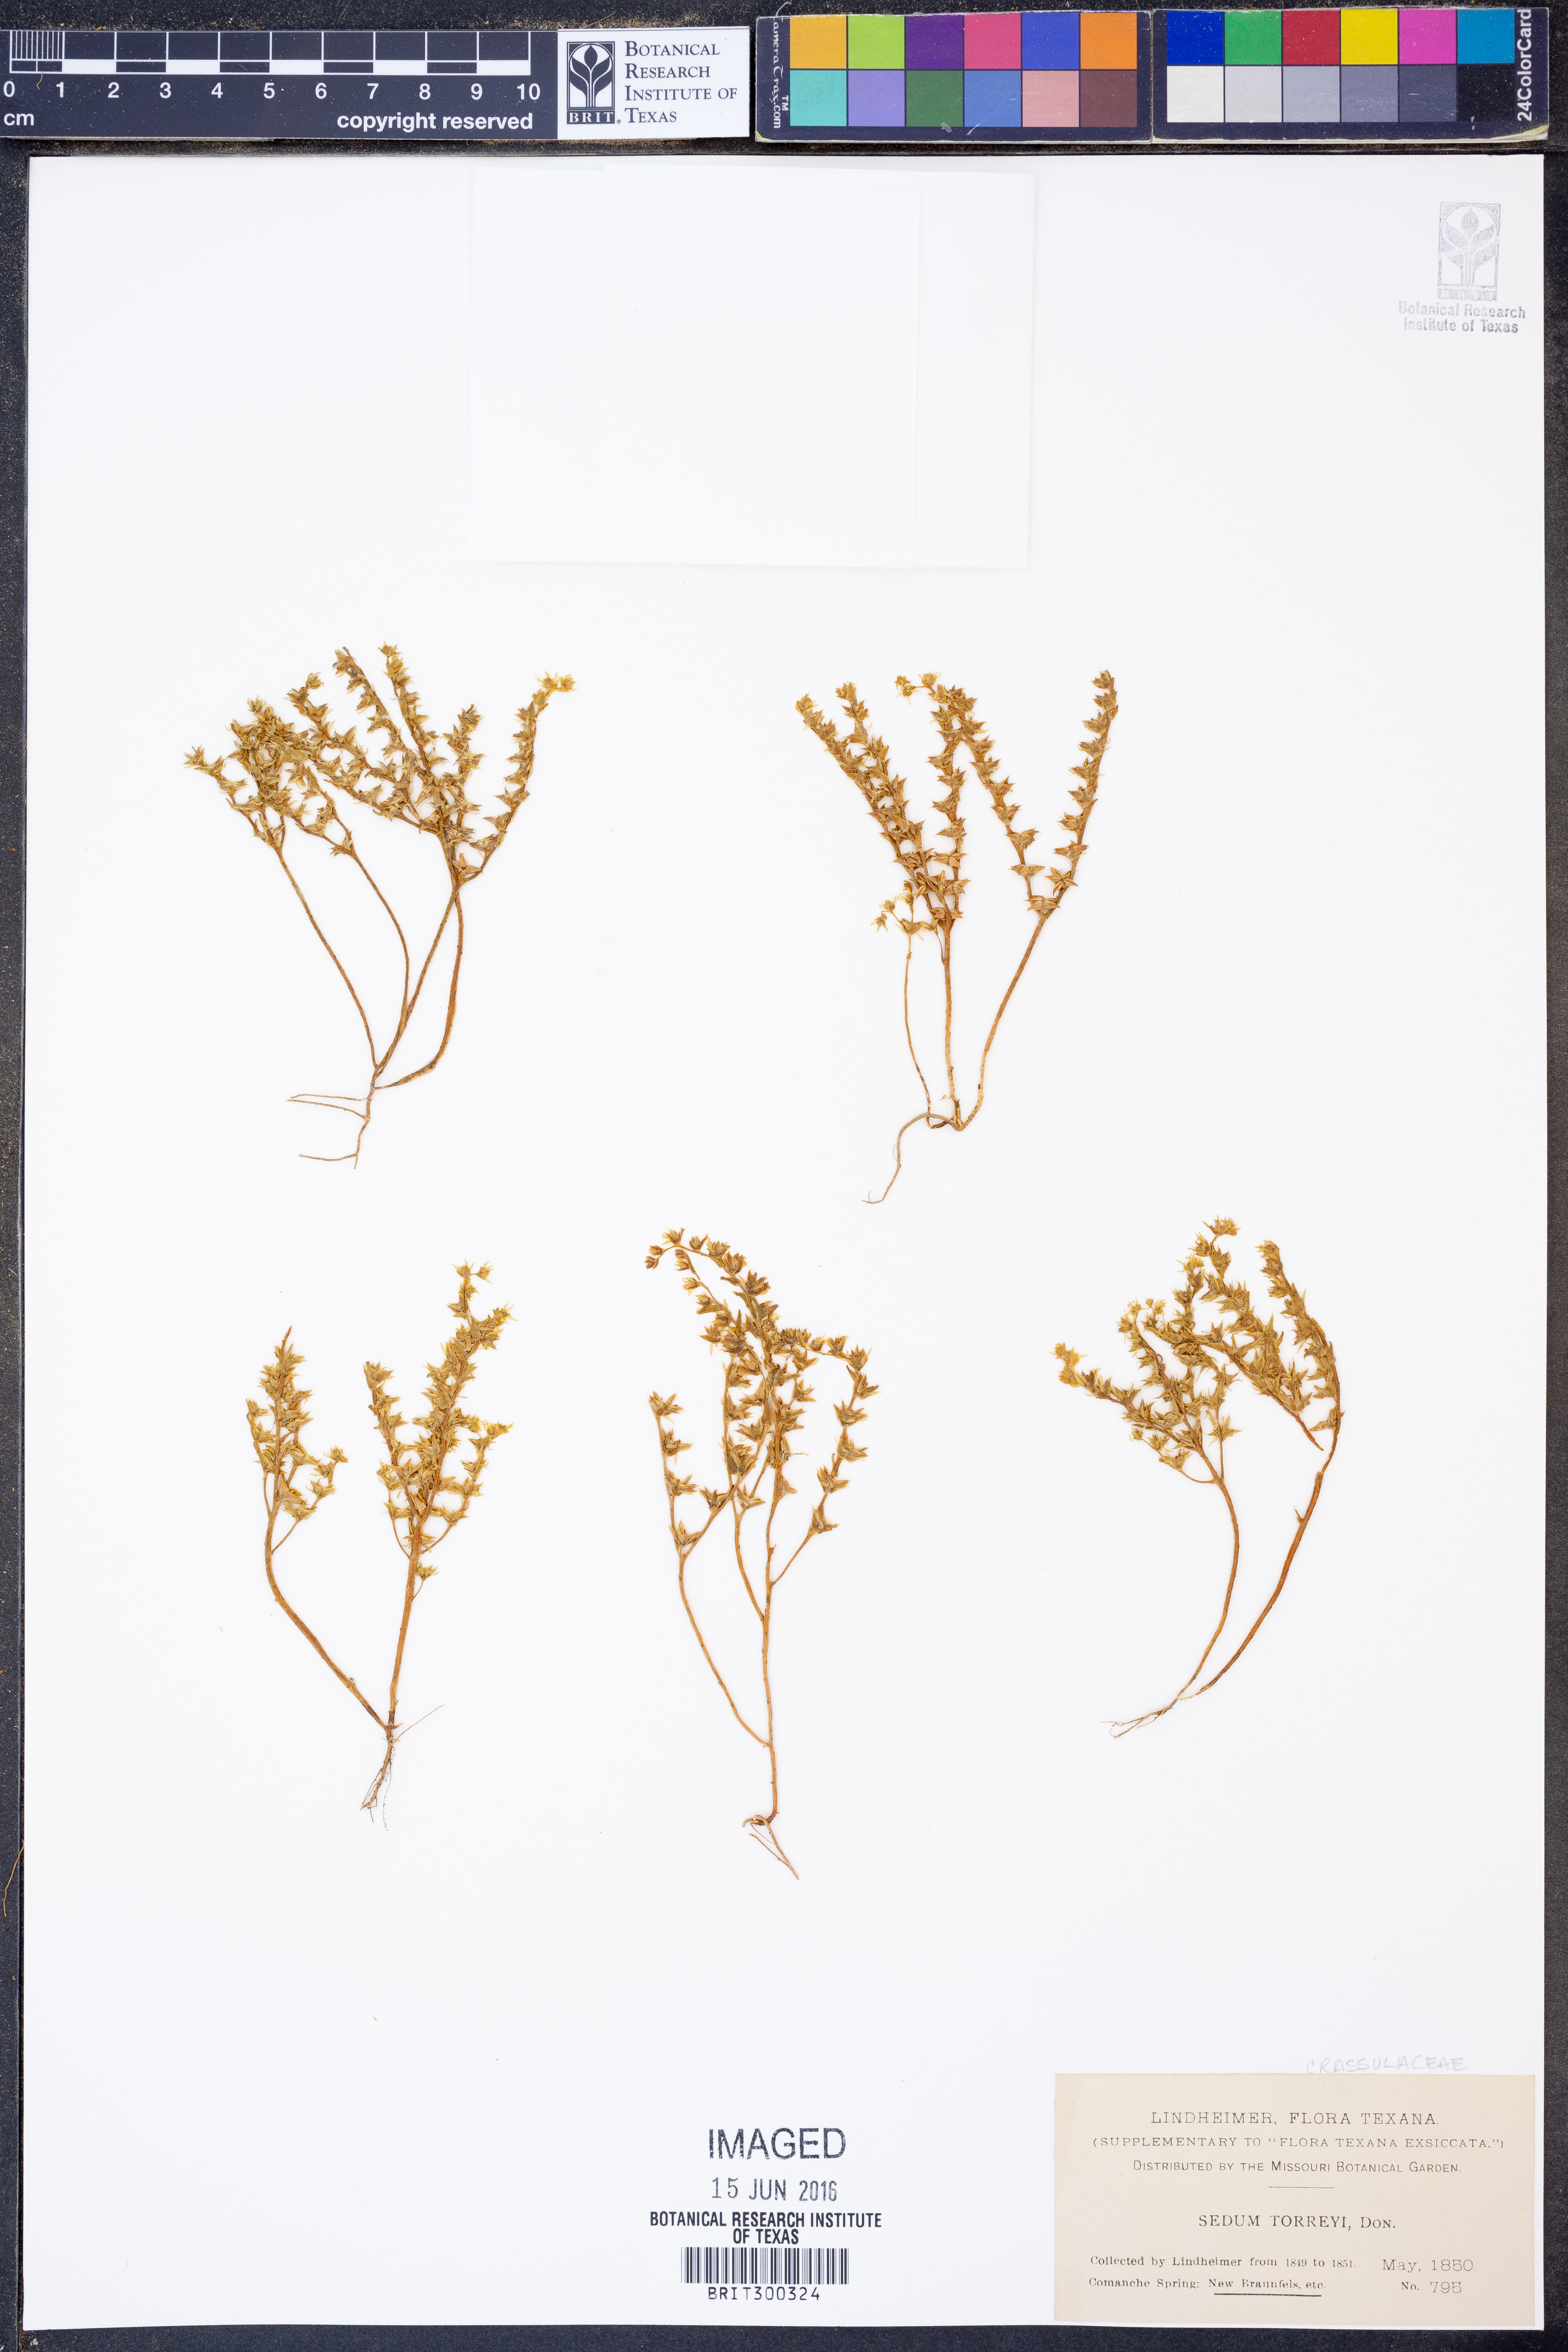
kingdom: Plantae
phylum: Tracheophyta
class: Magnoliopsida
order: Saxifragales
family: Crassulaceae
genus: Sedum
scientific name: Sedum nuttallii
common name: Yellow stonecrop
